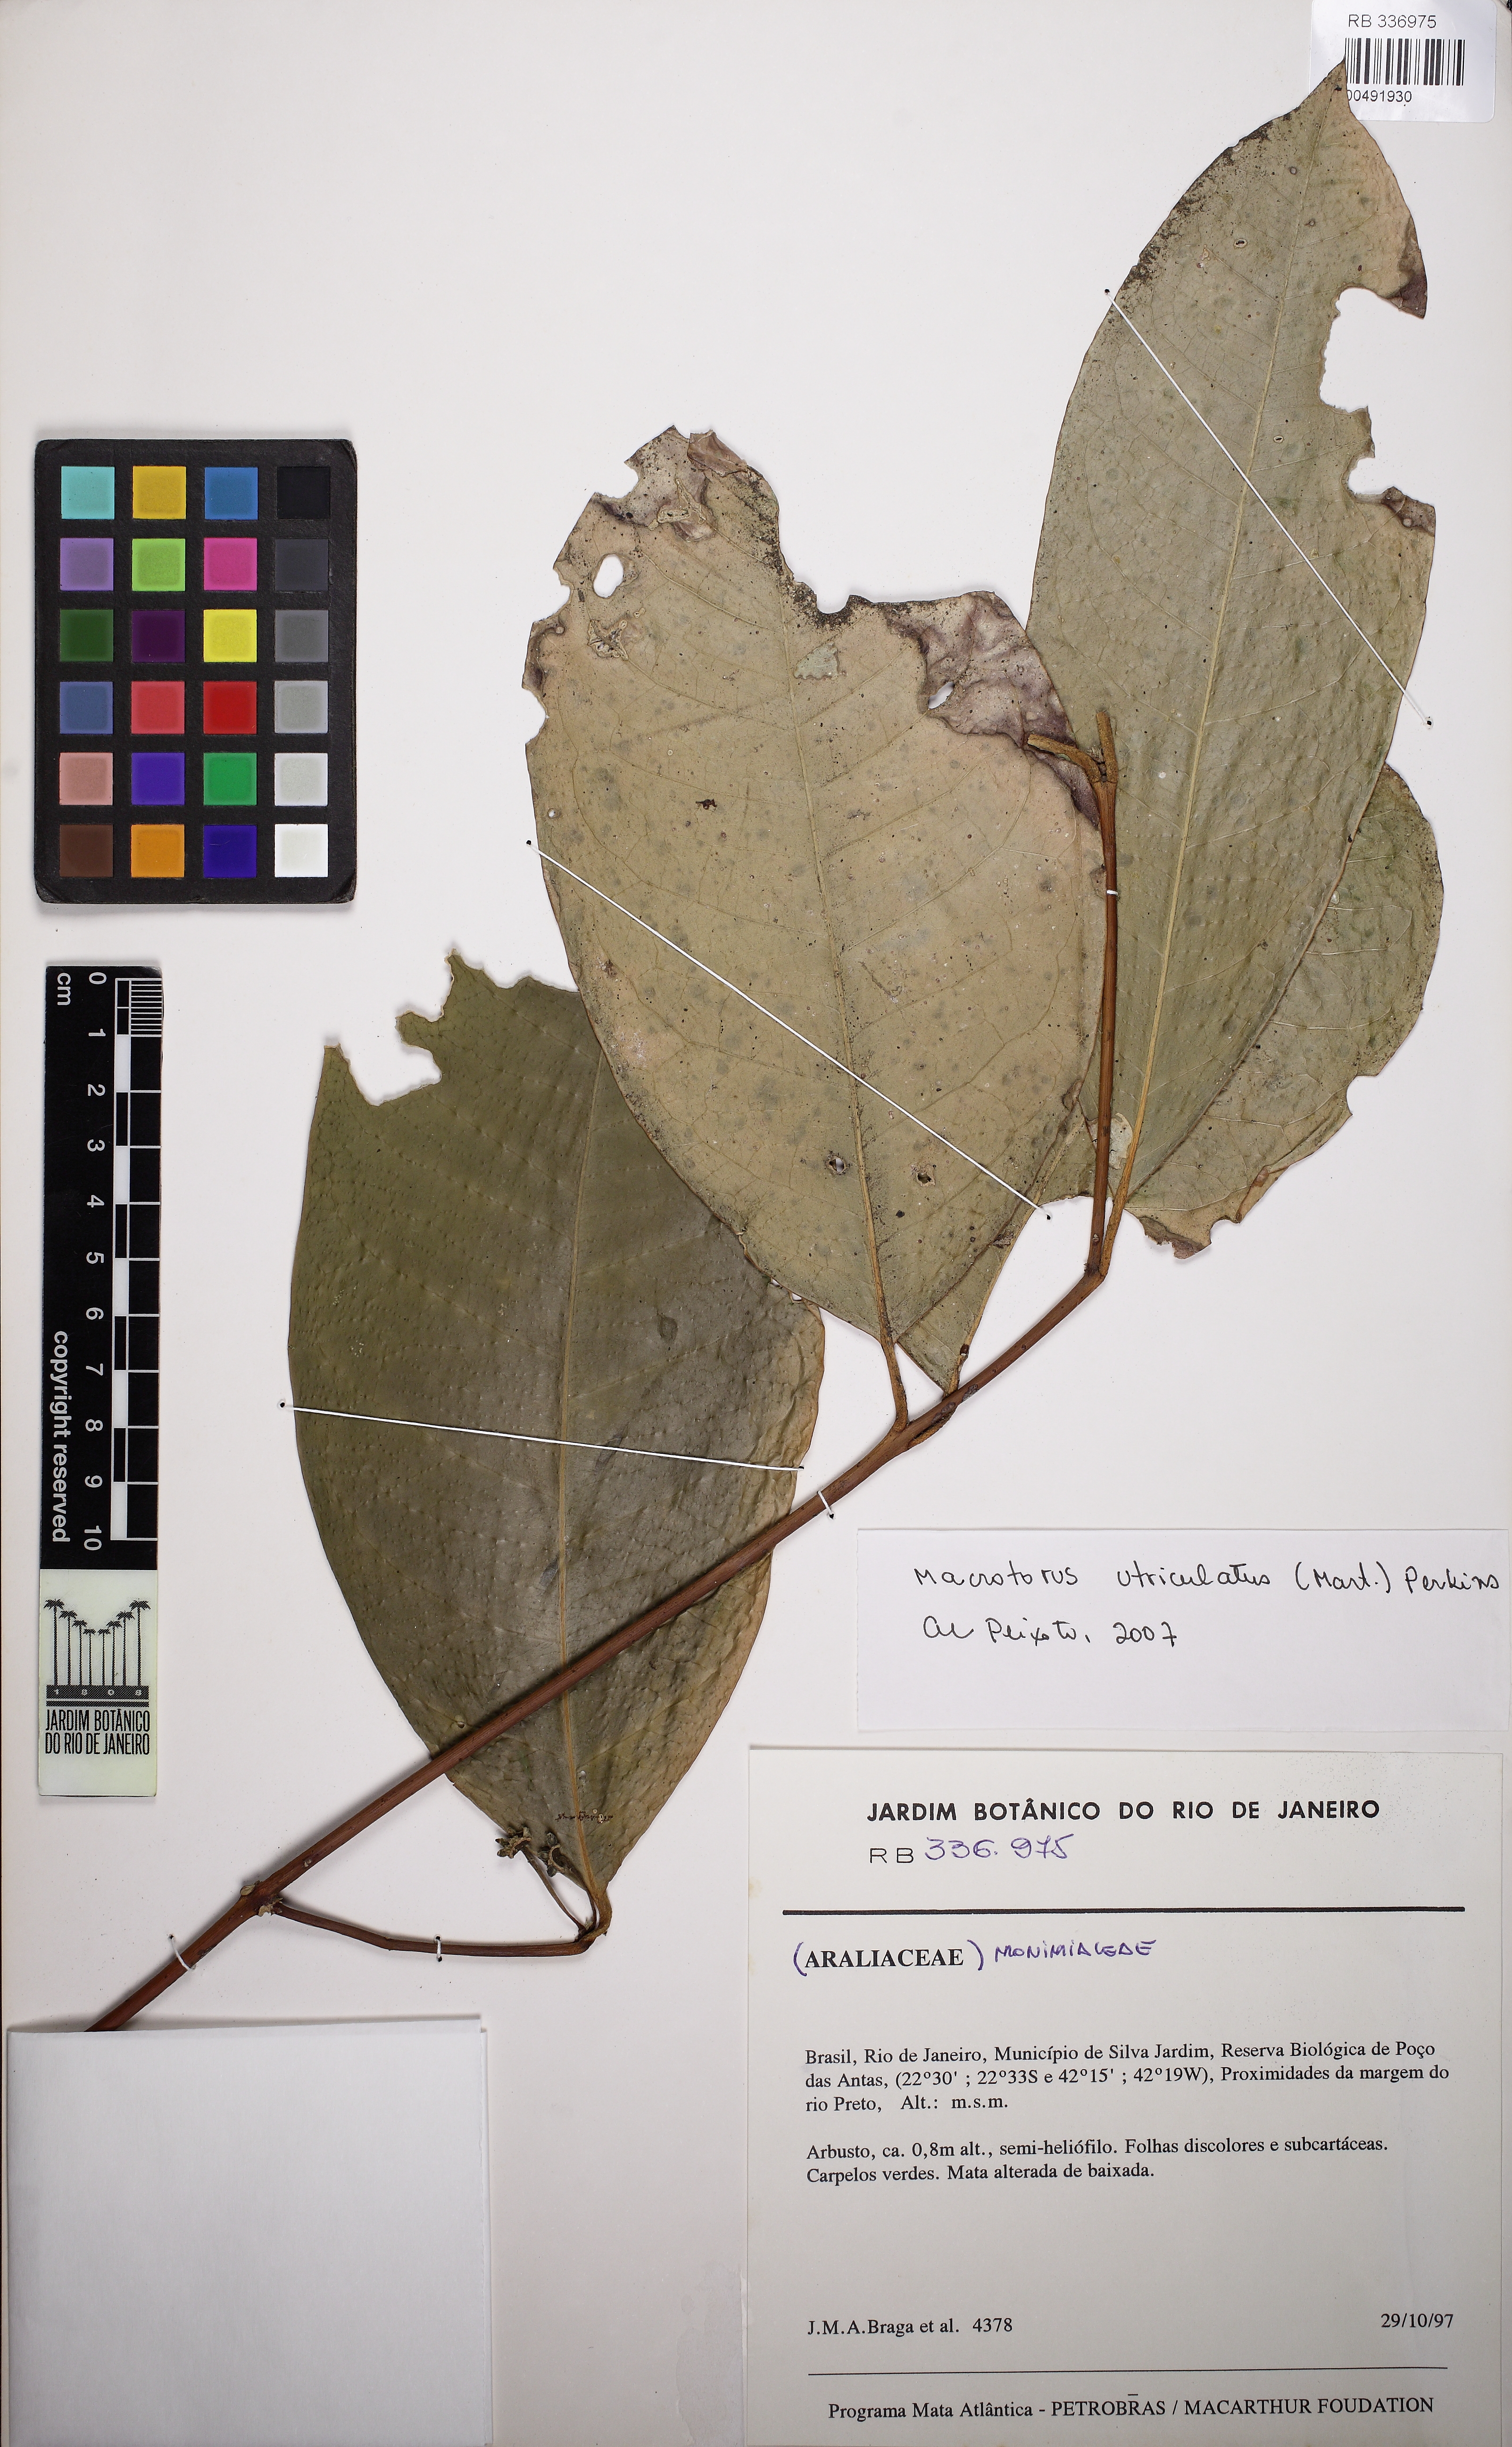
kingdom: Plantae
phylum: Tracheophyta
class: Magnoliopsida
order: Laurales
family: Monimiaceae
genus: Macrotorus
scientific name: Macrotorus utriculatus
